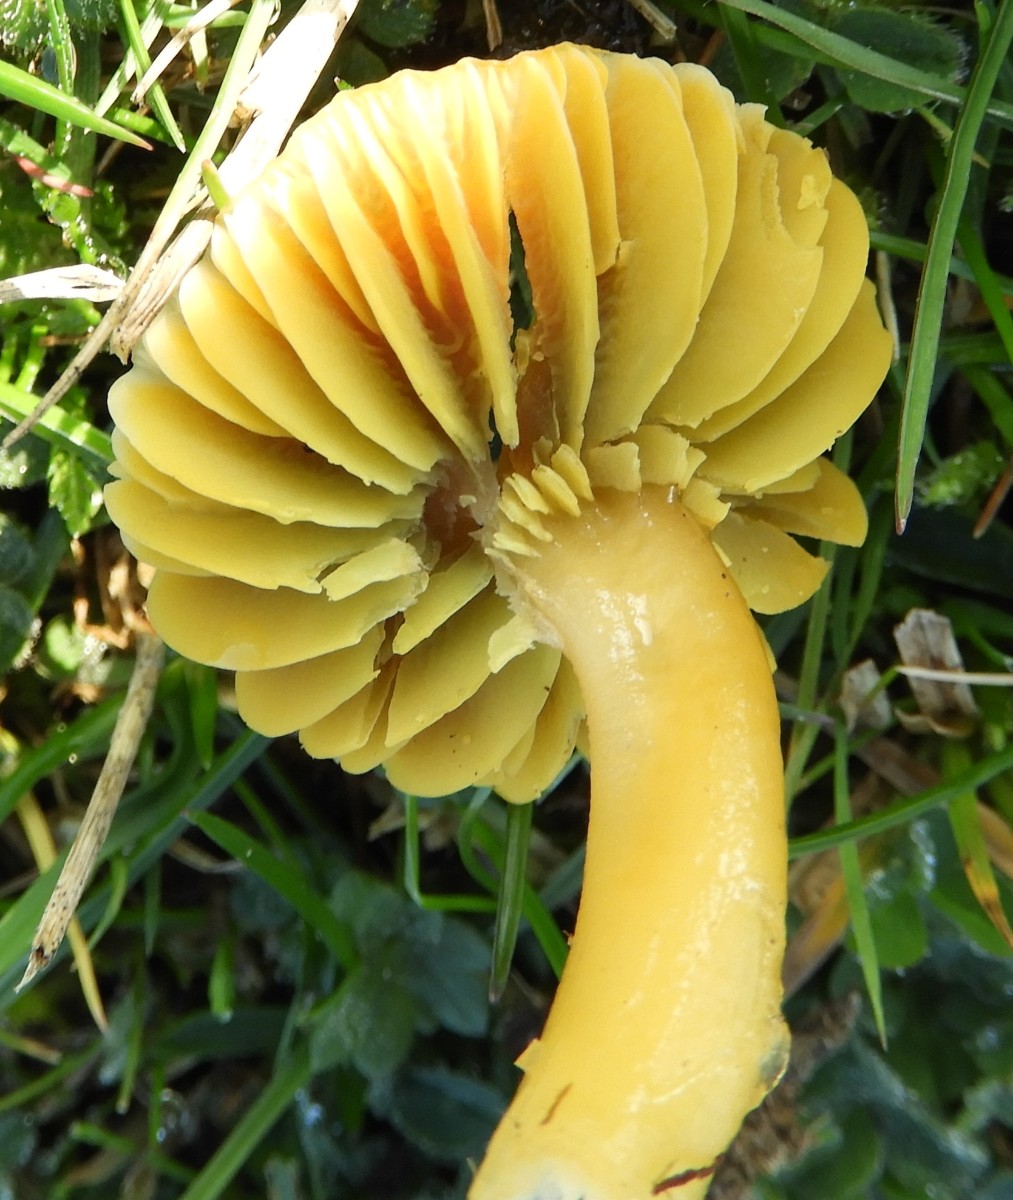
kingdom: Fungi
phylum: Basidiomycota
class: Agaricomycetes
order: Agaricales
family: Hygrophoraceae
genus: Gliophorus
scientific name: Gliophorus psittacinus
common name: papegøje-vokshat
